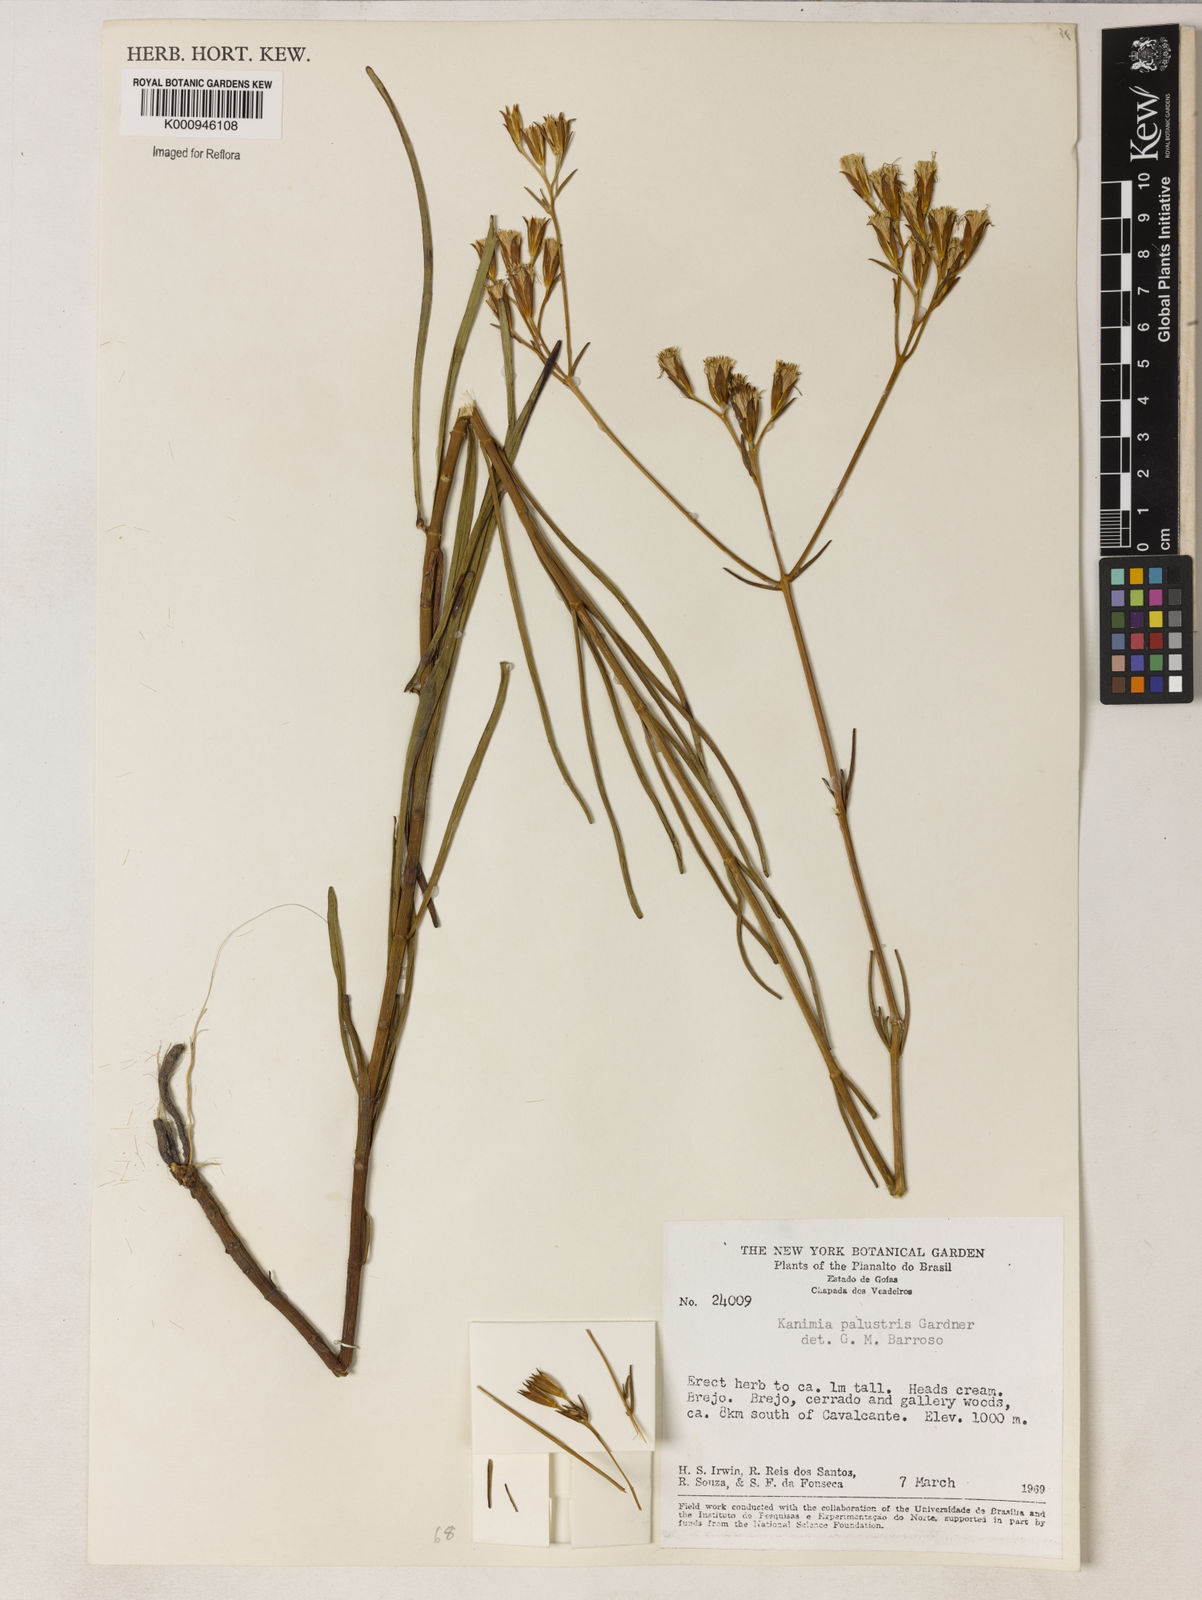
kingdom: Plantae
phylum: Tracheophyta
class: Magnoliopsida
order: Asterales
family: Asteraceae
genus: Mikania
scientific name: Mikania palustris
